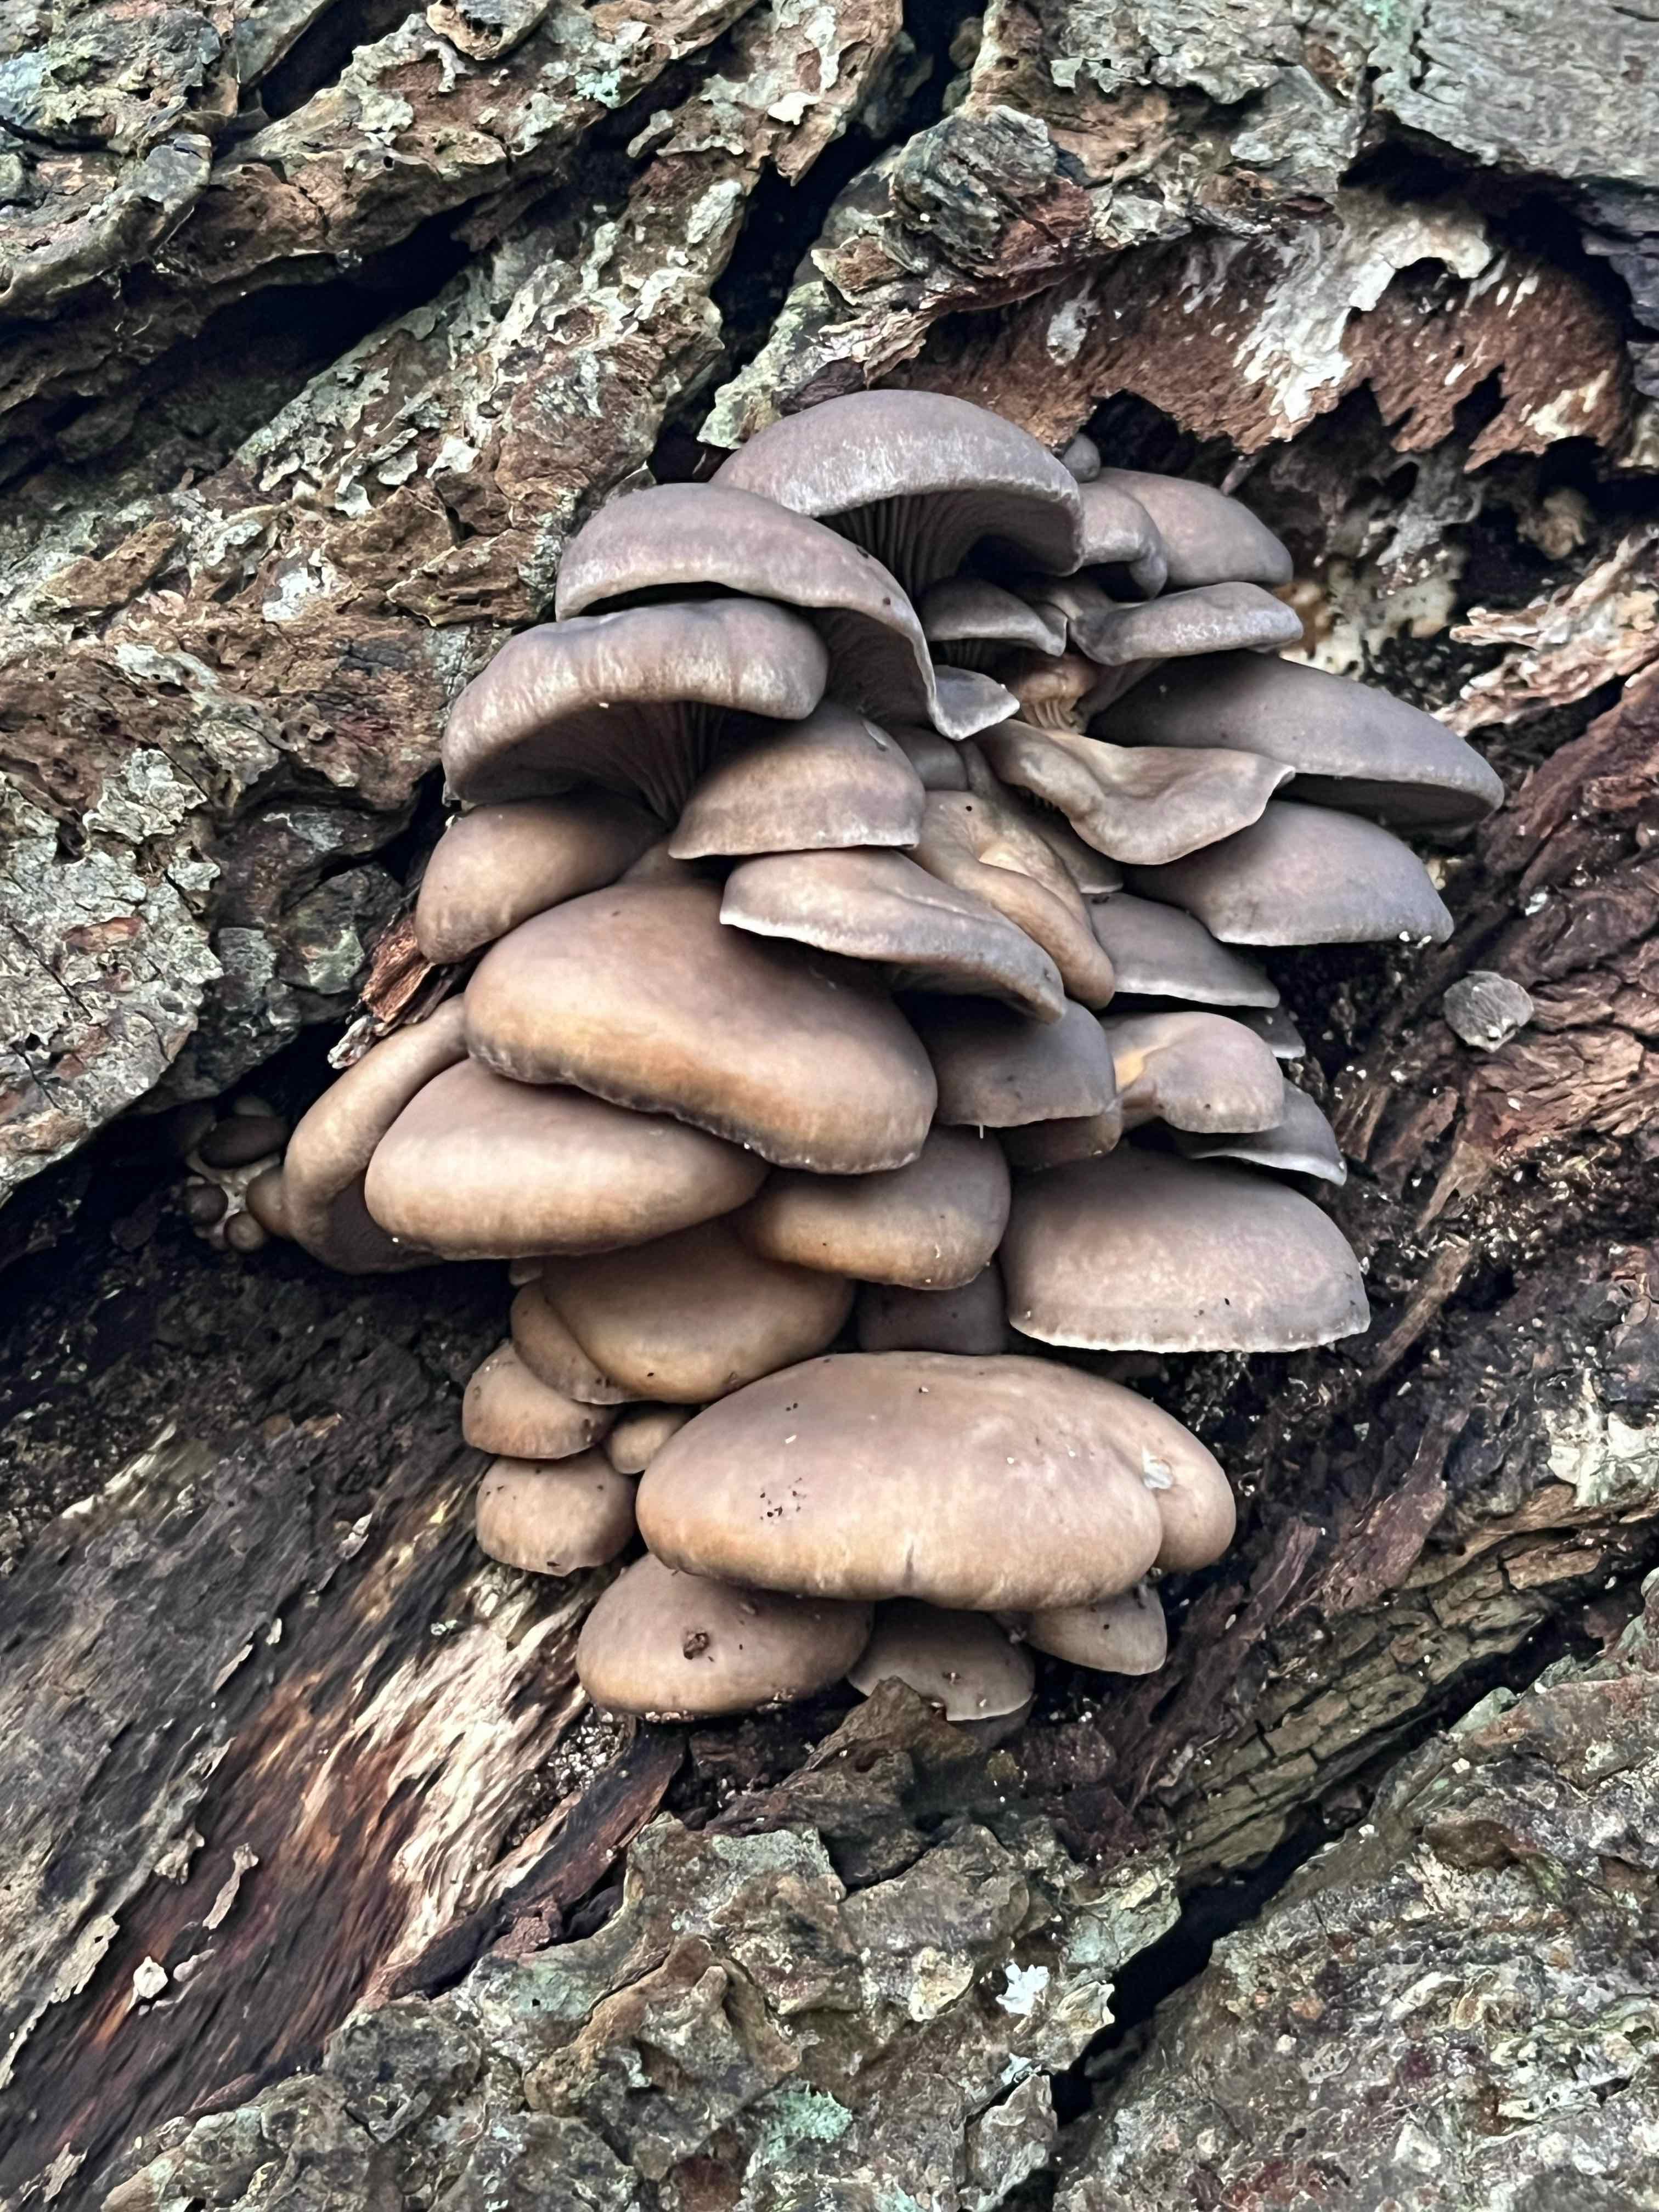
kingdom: Fungi
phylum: Basidiomycota
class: Agaricomycetes
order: Agaricales
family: Pleurotaceae
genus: Pleurotus
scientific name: Pleurotus ostreatus
